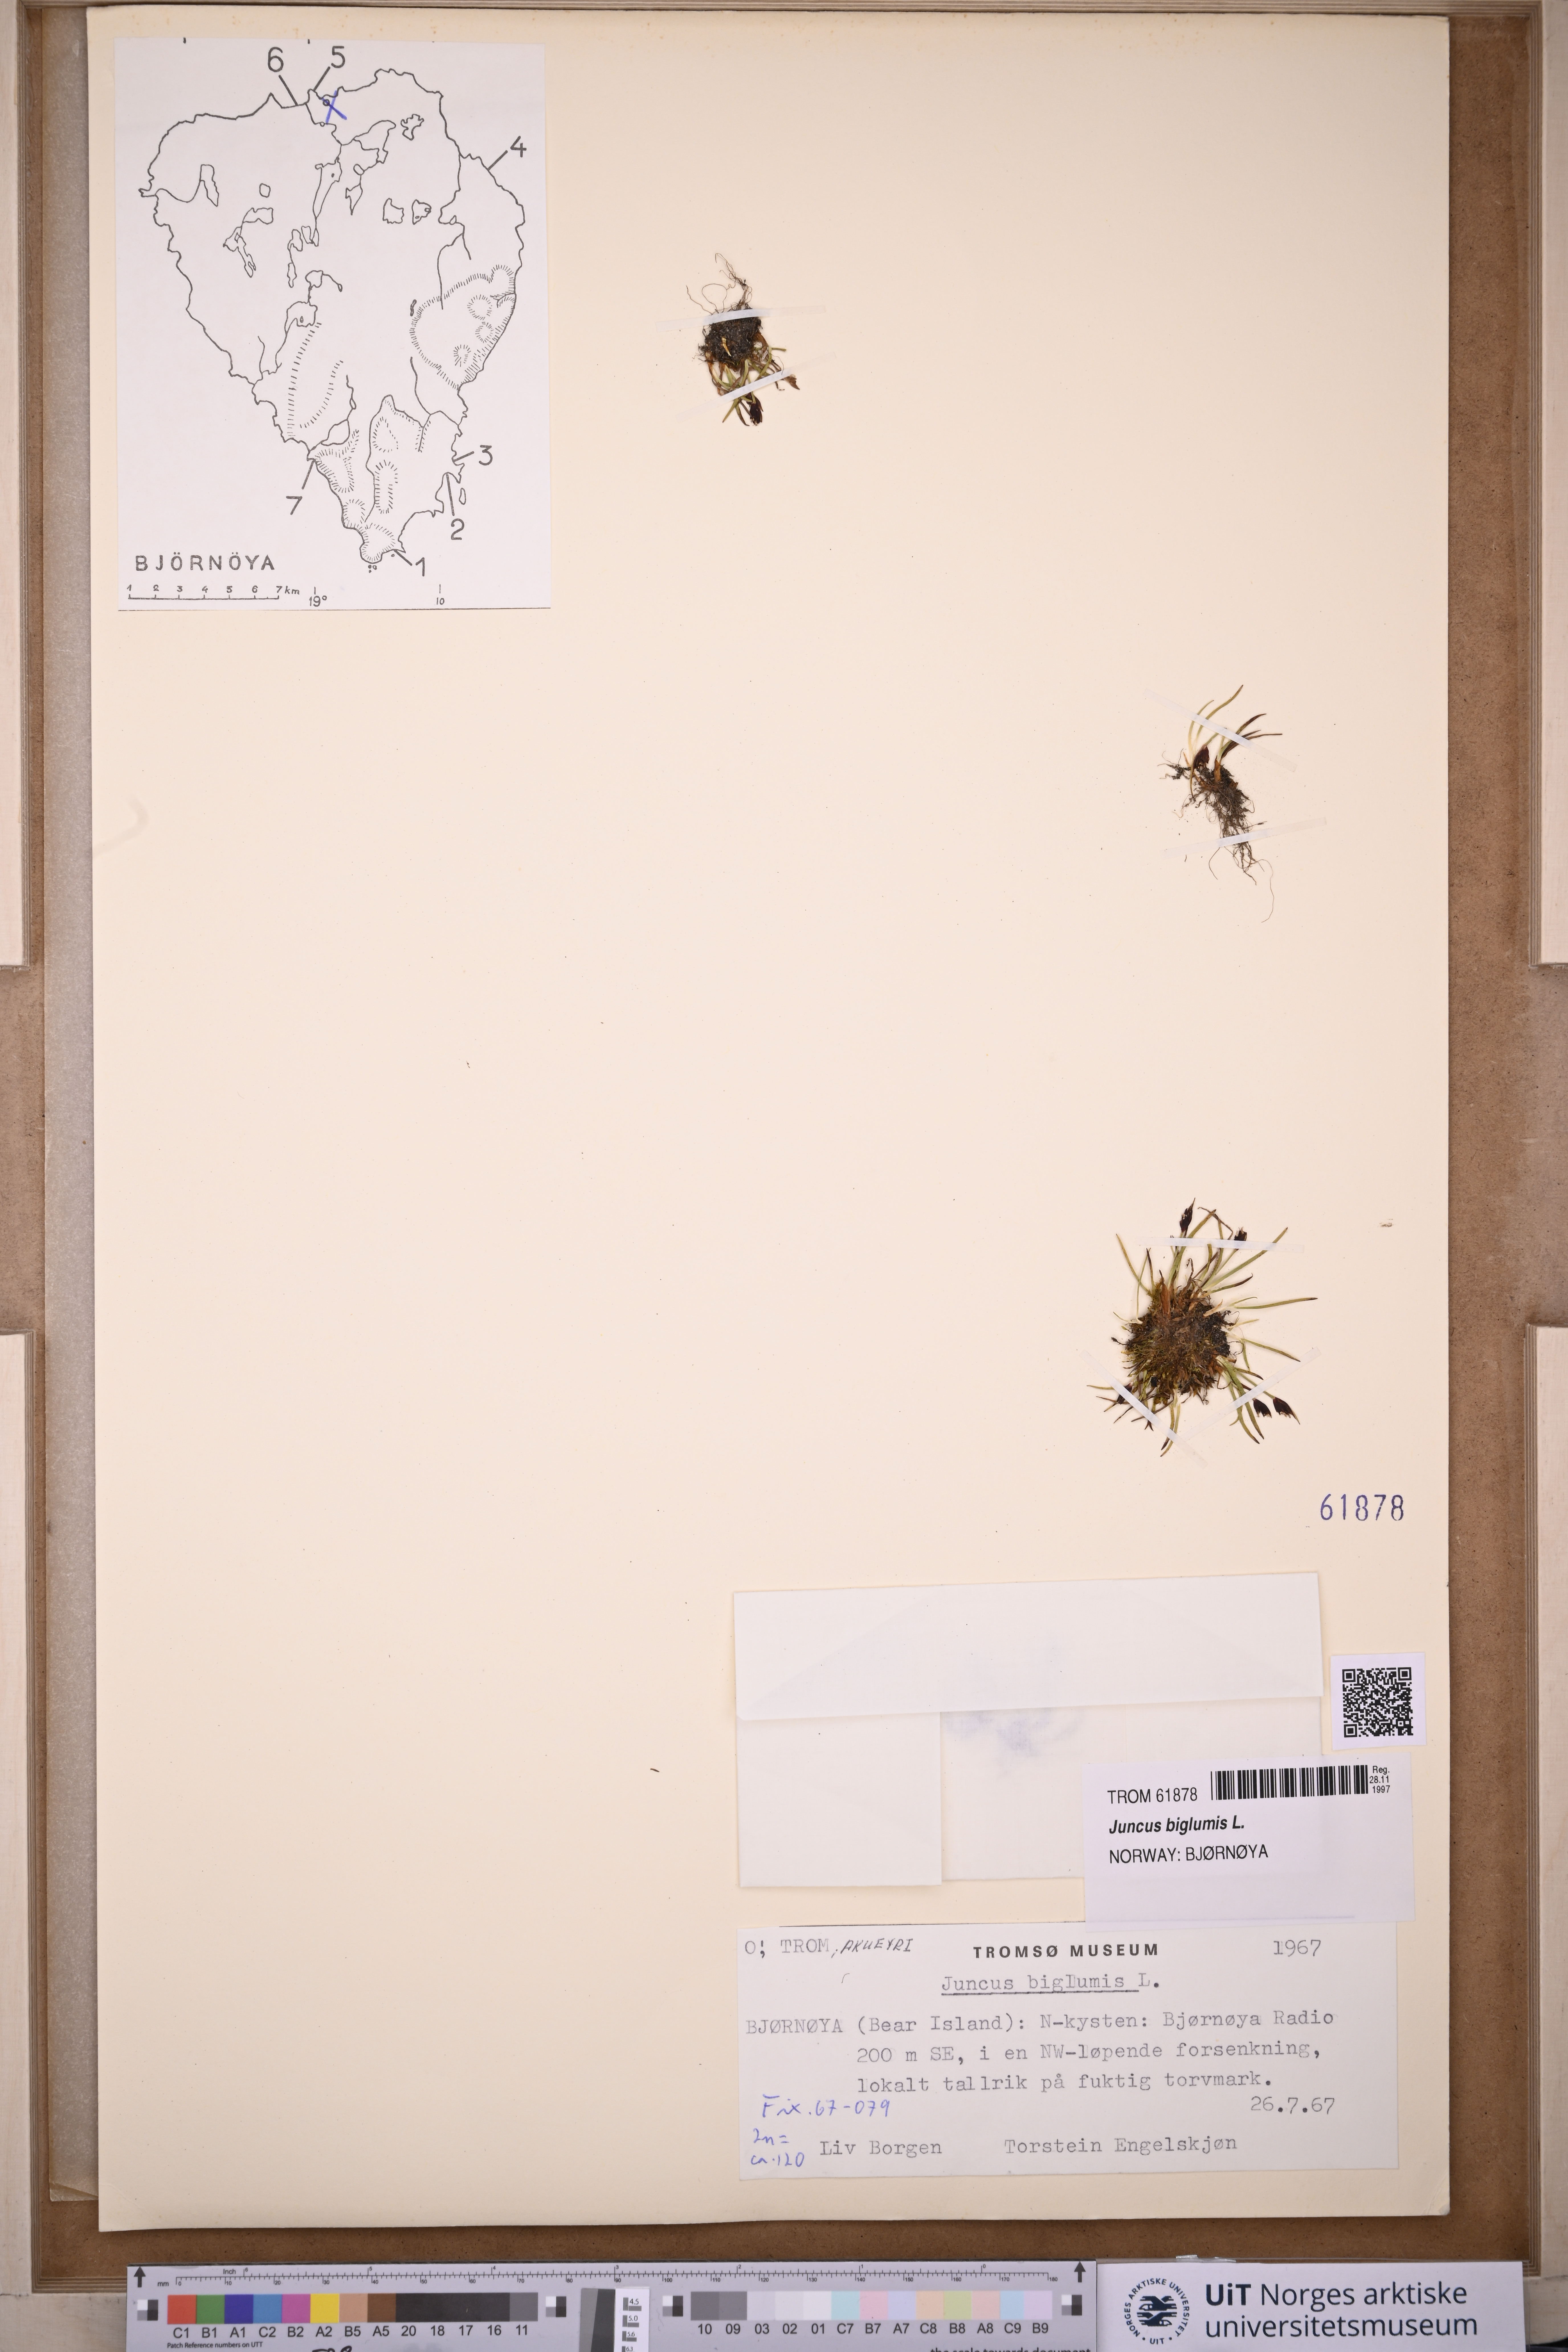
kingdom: Plantae
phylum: Tracheophyta
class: Liliopsida
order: Poales
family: Juncaceae
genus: Juncus
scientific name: Juncus biglumis
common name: Two-flowered rush
